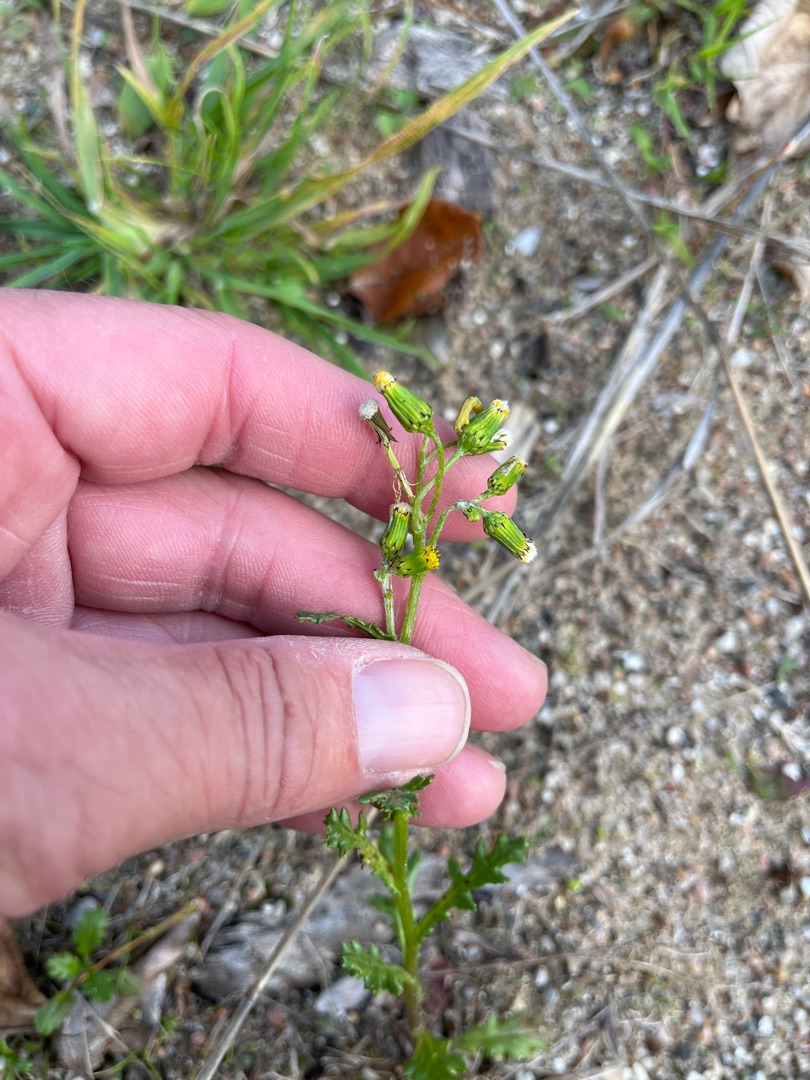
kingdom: Plantae
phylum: Tracheophyta
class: Magnoliopsida
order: Asterales
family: Asteraceae
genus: Senecio
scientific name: Senecio vulgaris
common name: Almindelig brandbæger
